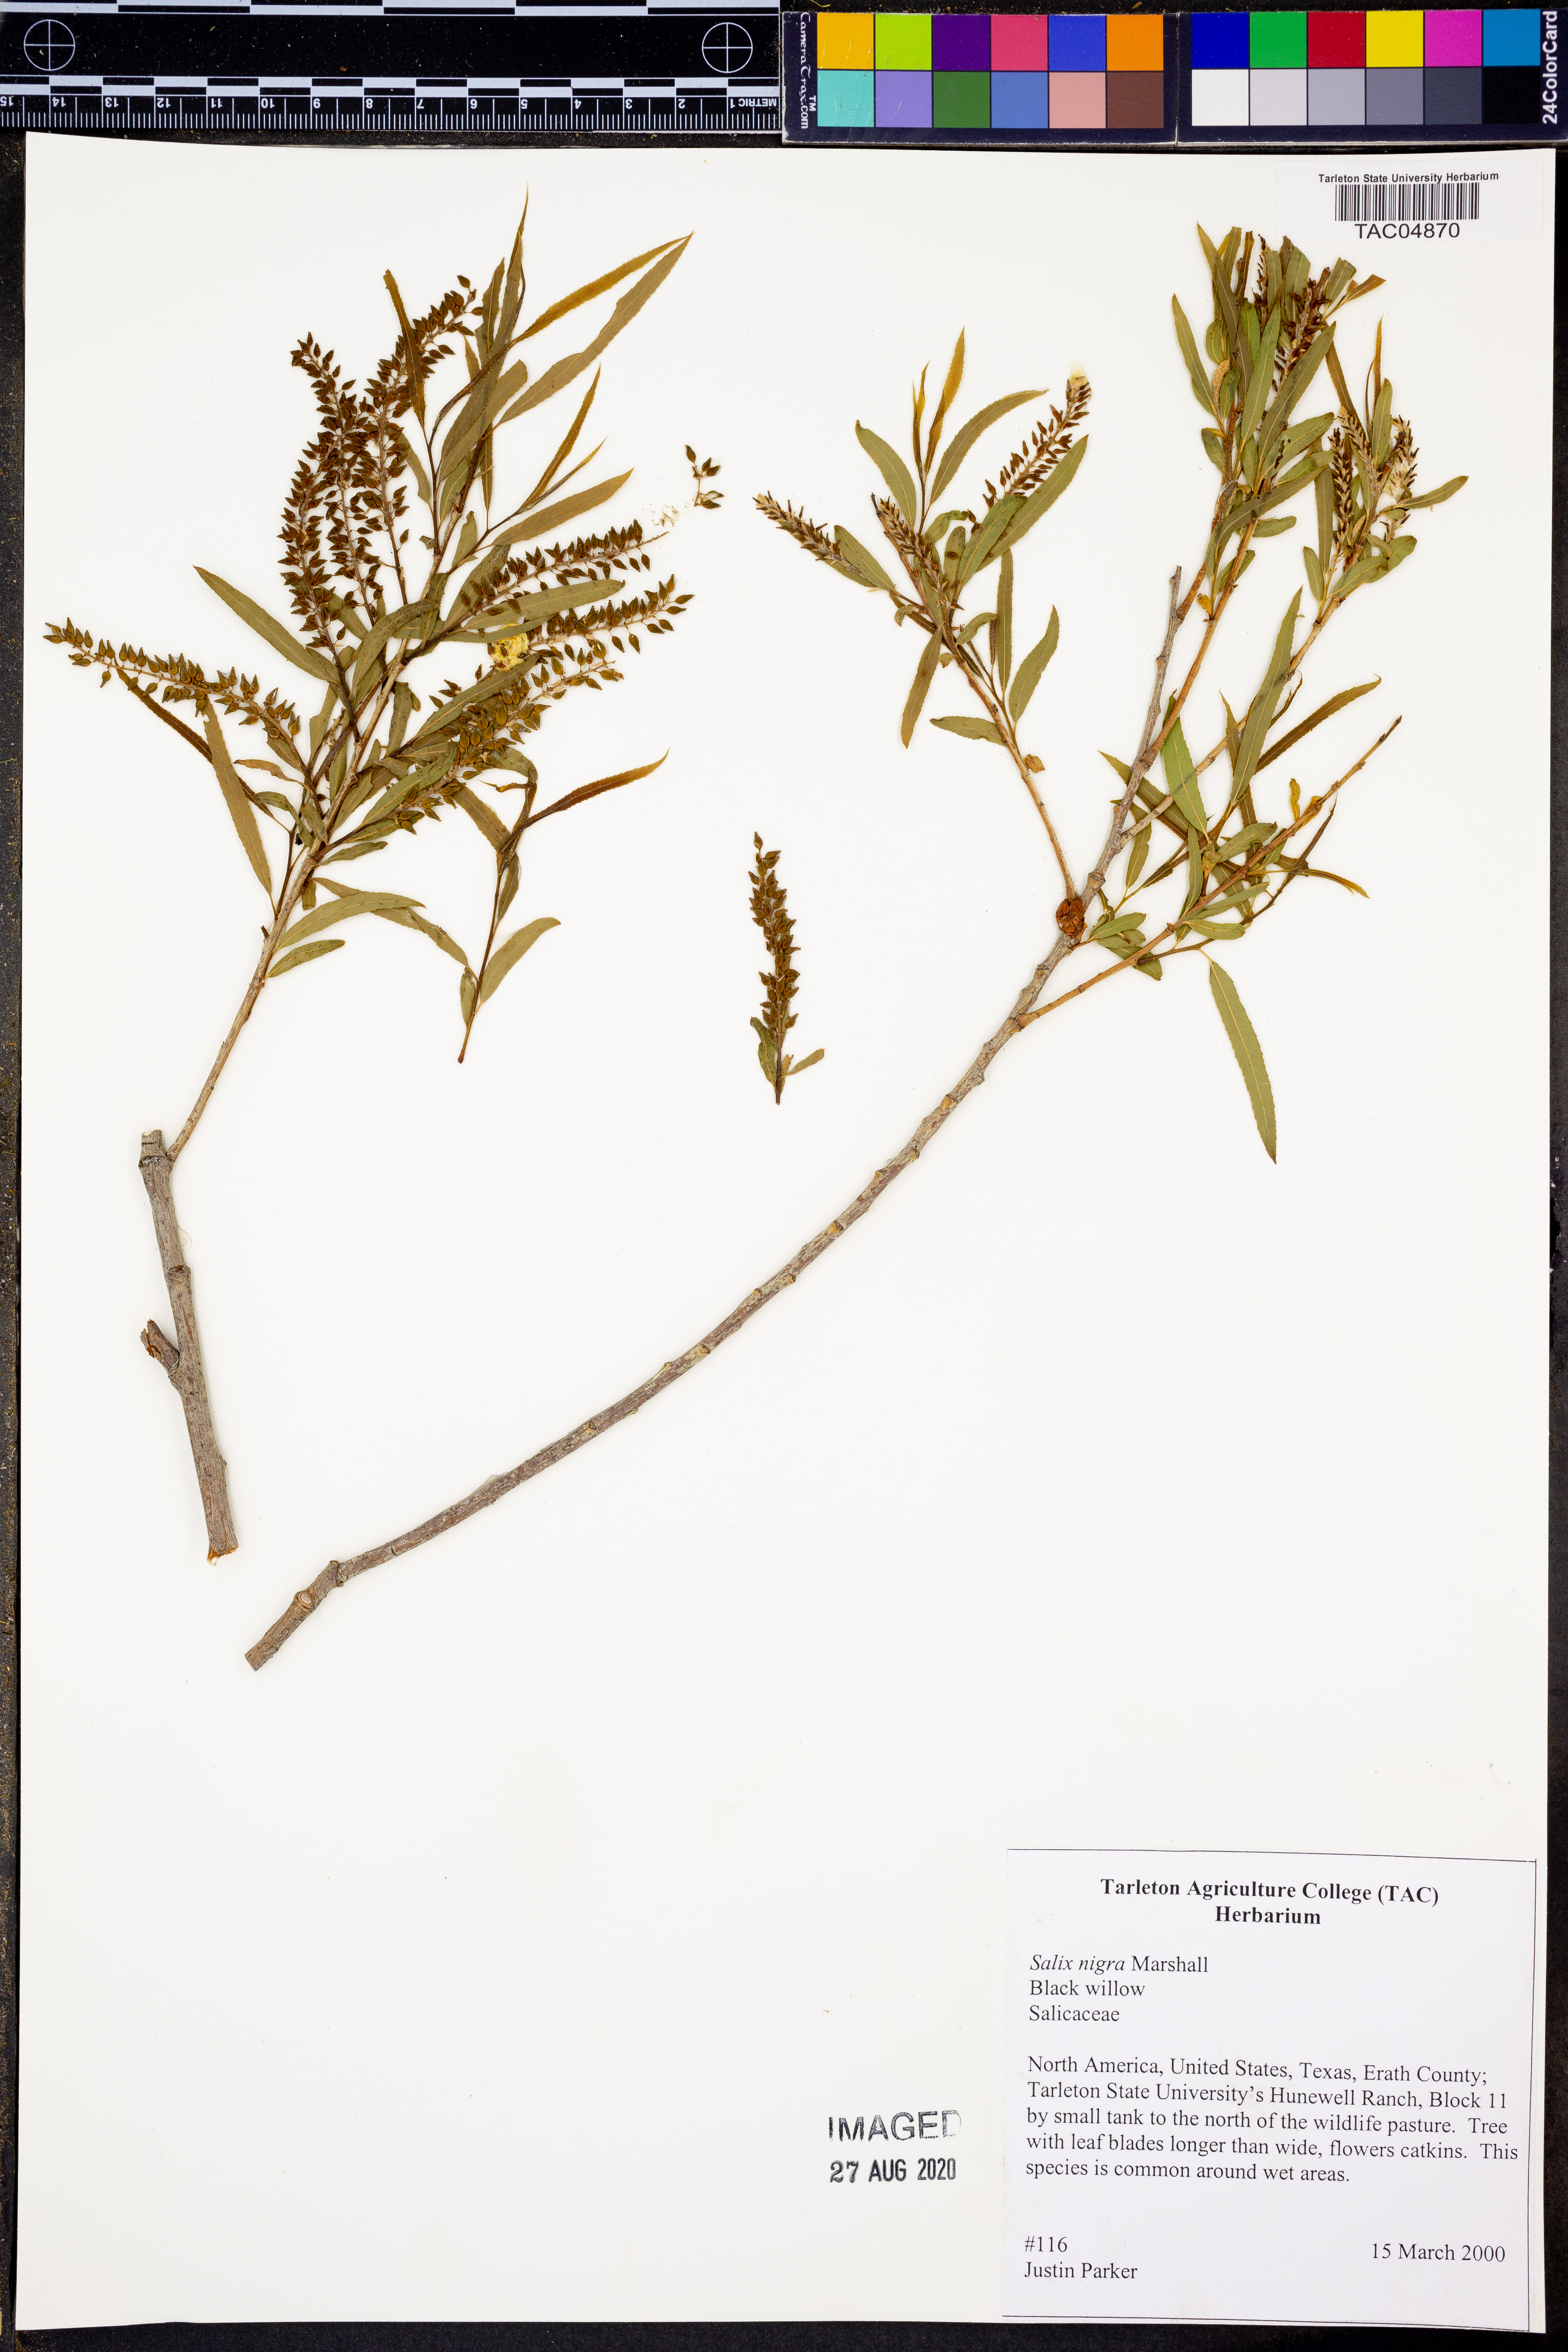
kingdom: Plantae
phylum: Tracheophyta
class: Magnoliopsida
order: Malpighiales
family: Salicaceae
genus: Salix
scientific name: Salix nigra
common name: Black willow
